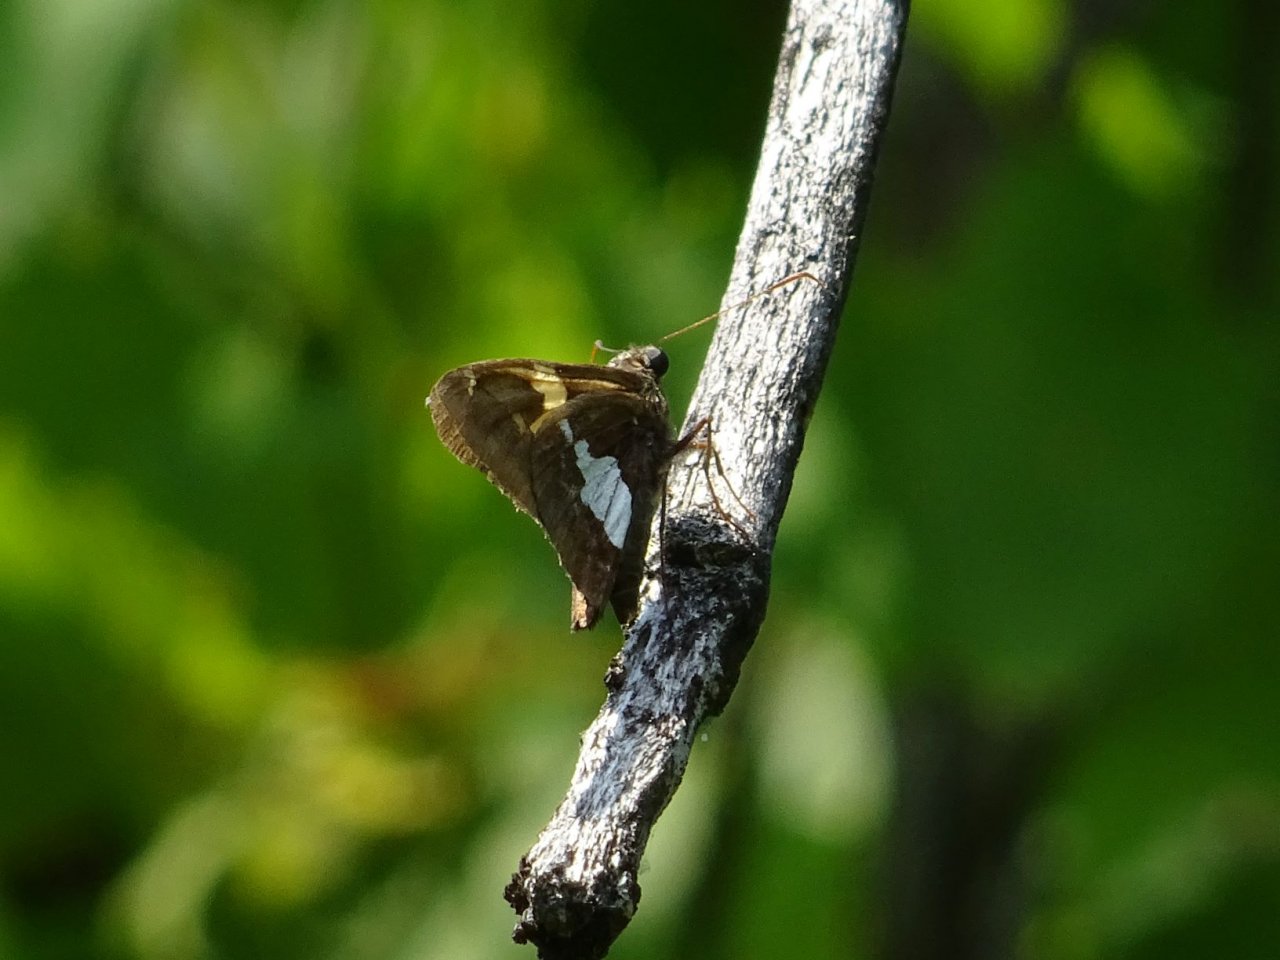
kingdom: Animalia
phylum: Arthropoda
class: Insecta
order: Lepidoptera
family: Hesperiidae
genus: Epargyreus
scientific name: Epargyreus clarus
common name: Silver-spotted Skipper
